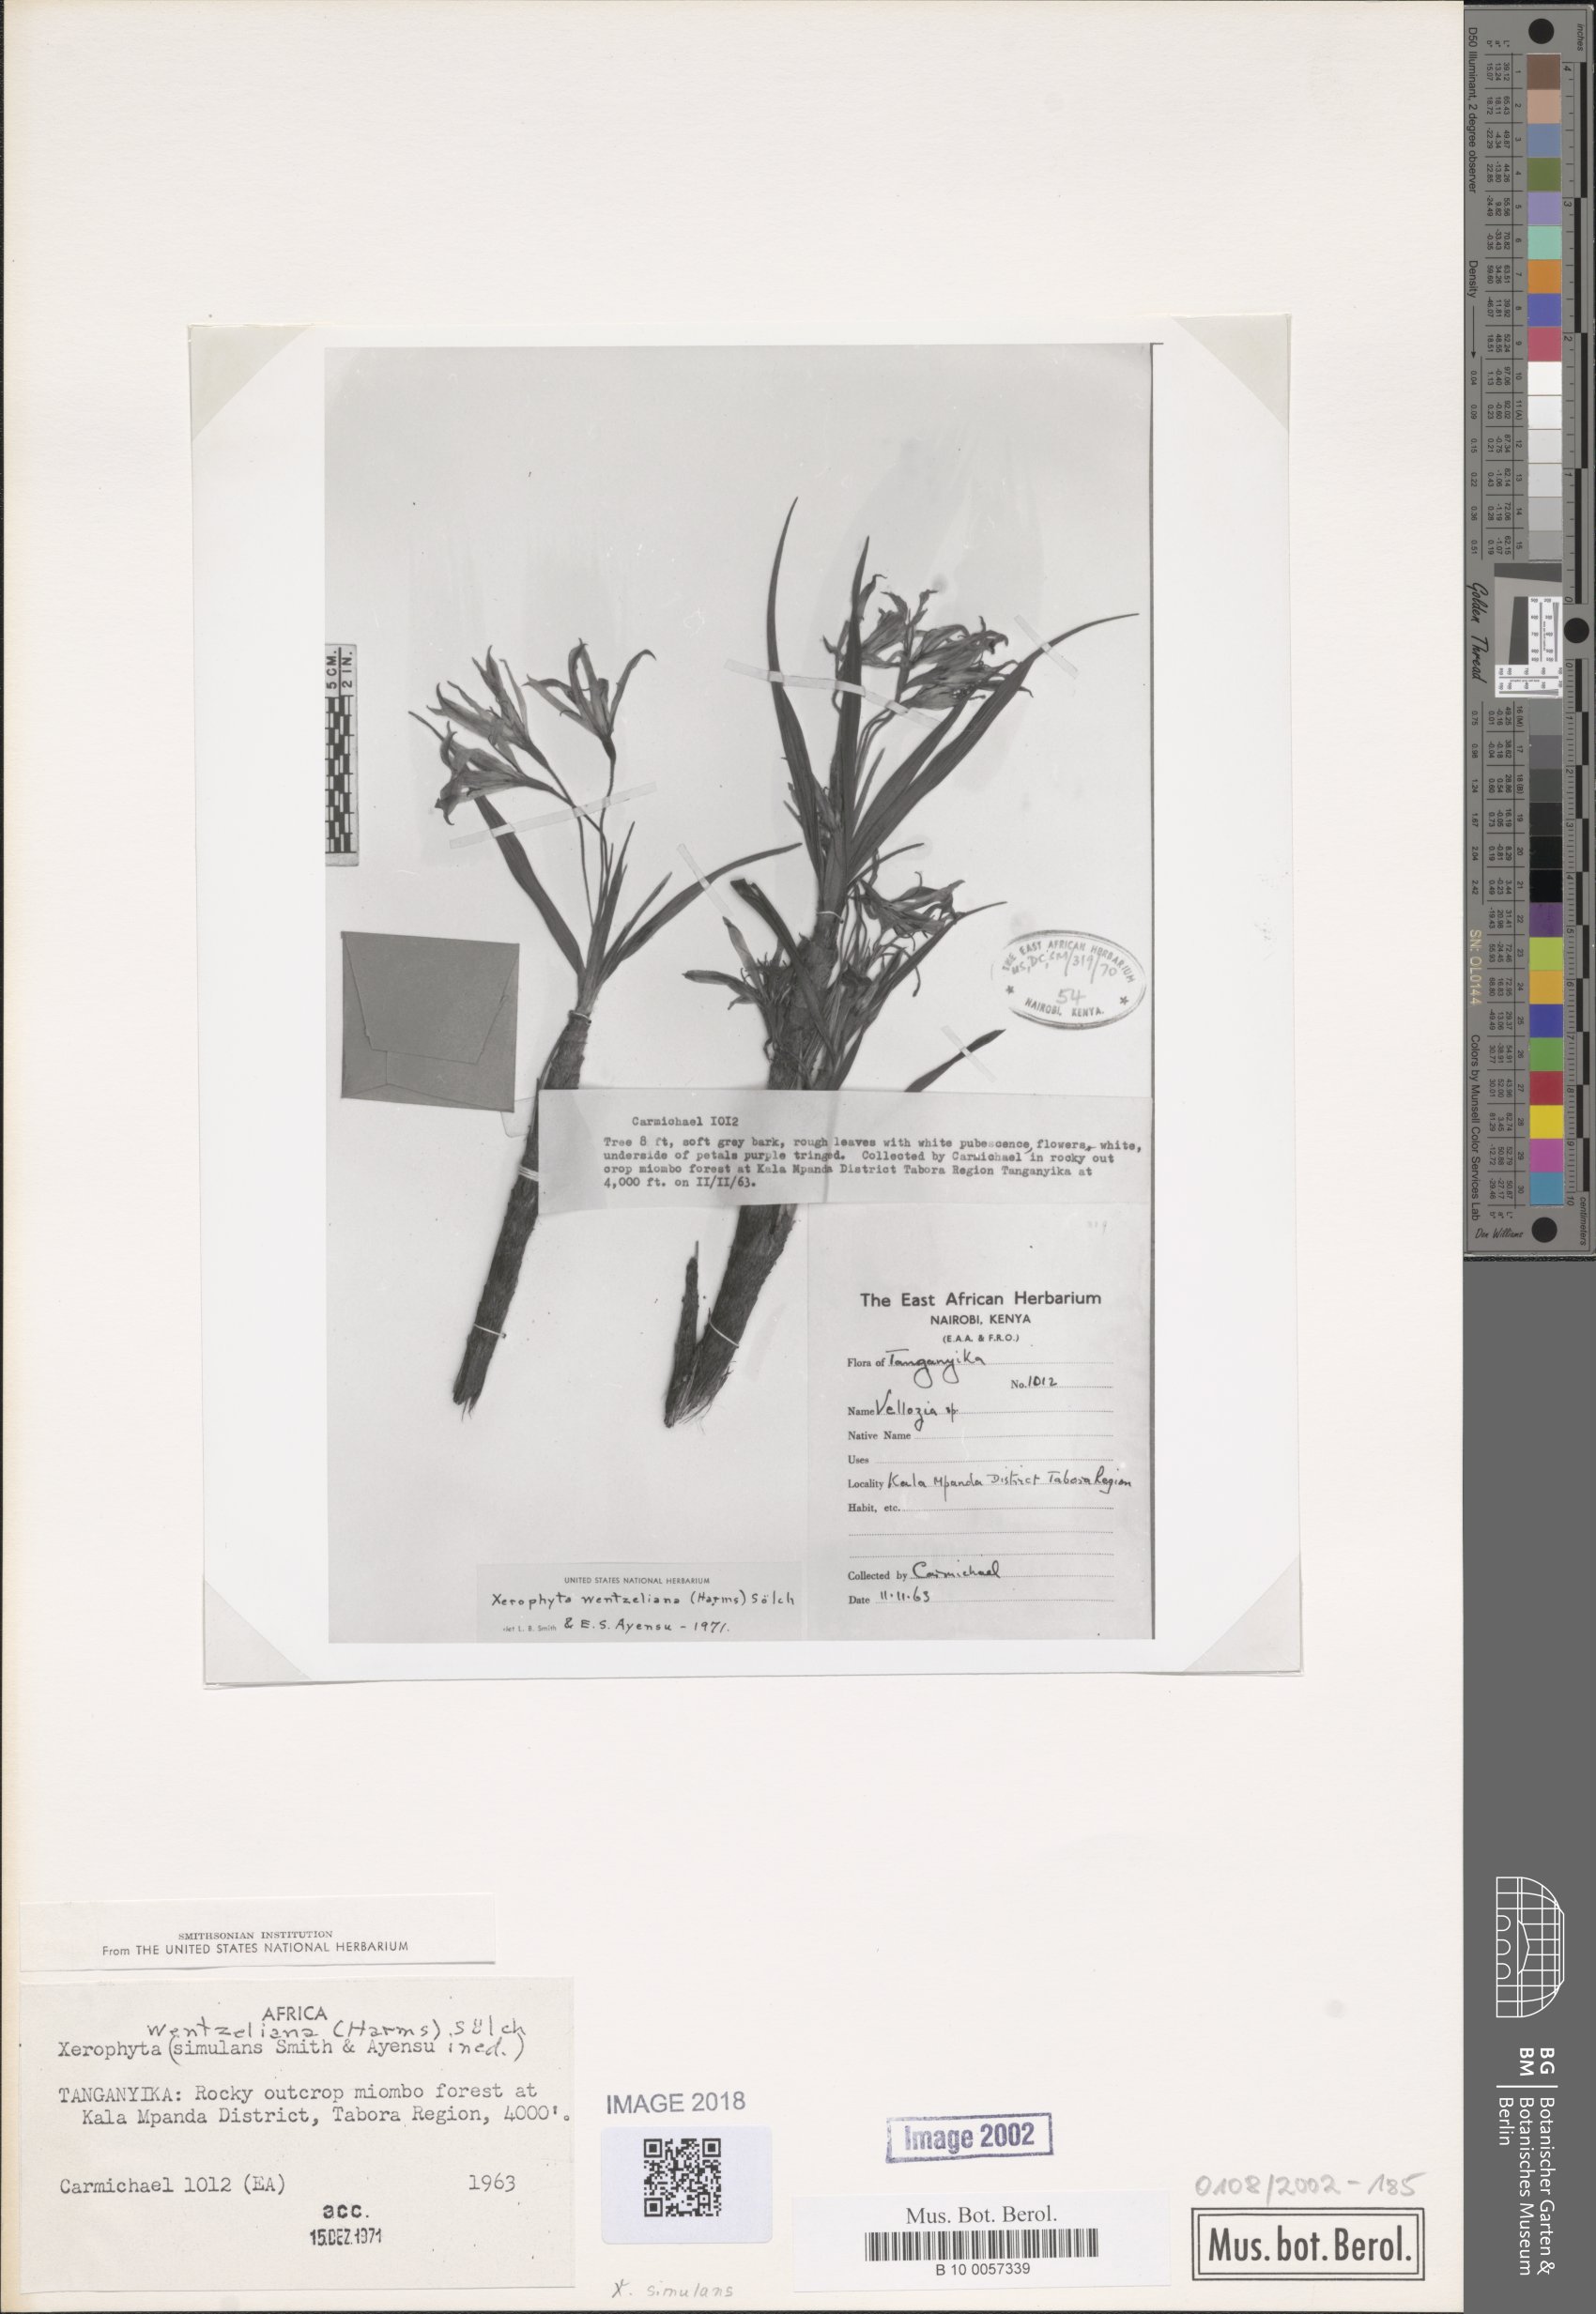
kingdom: Plantae
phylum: Tracheophyta
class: Liliopsida
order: Pandanales
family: Velloziaceae
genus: Xerophyta
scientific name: Xerophyta simulans
